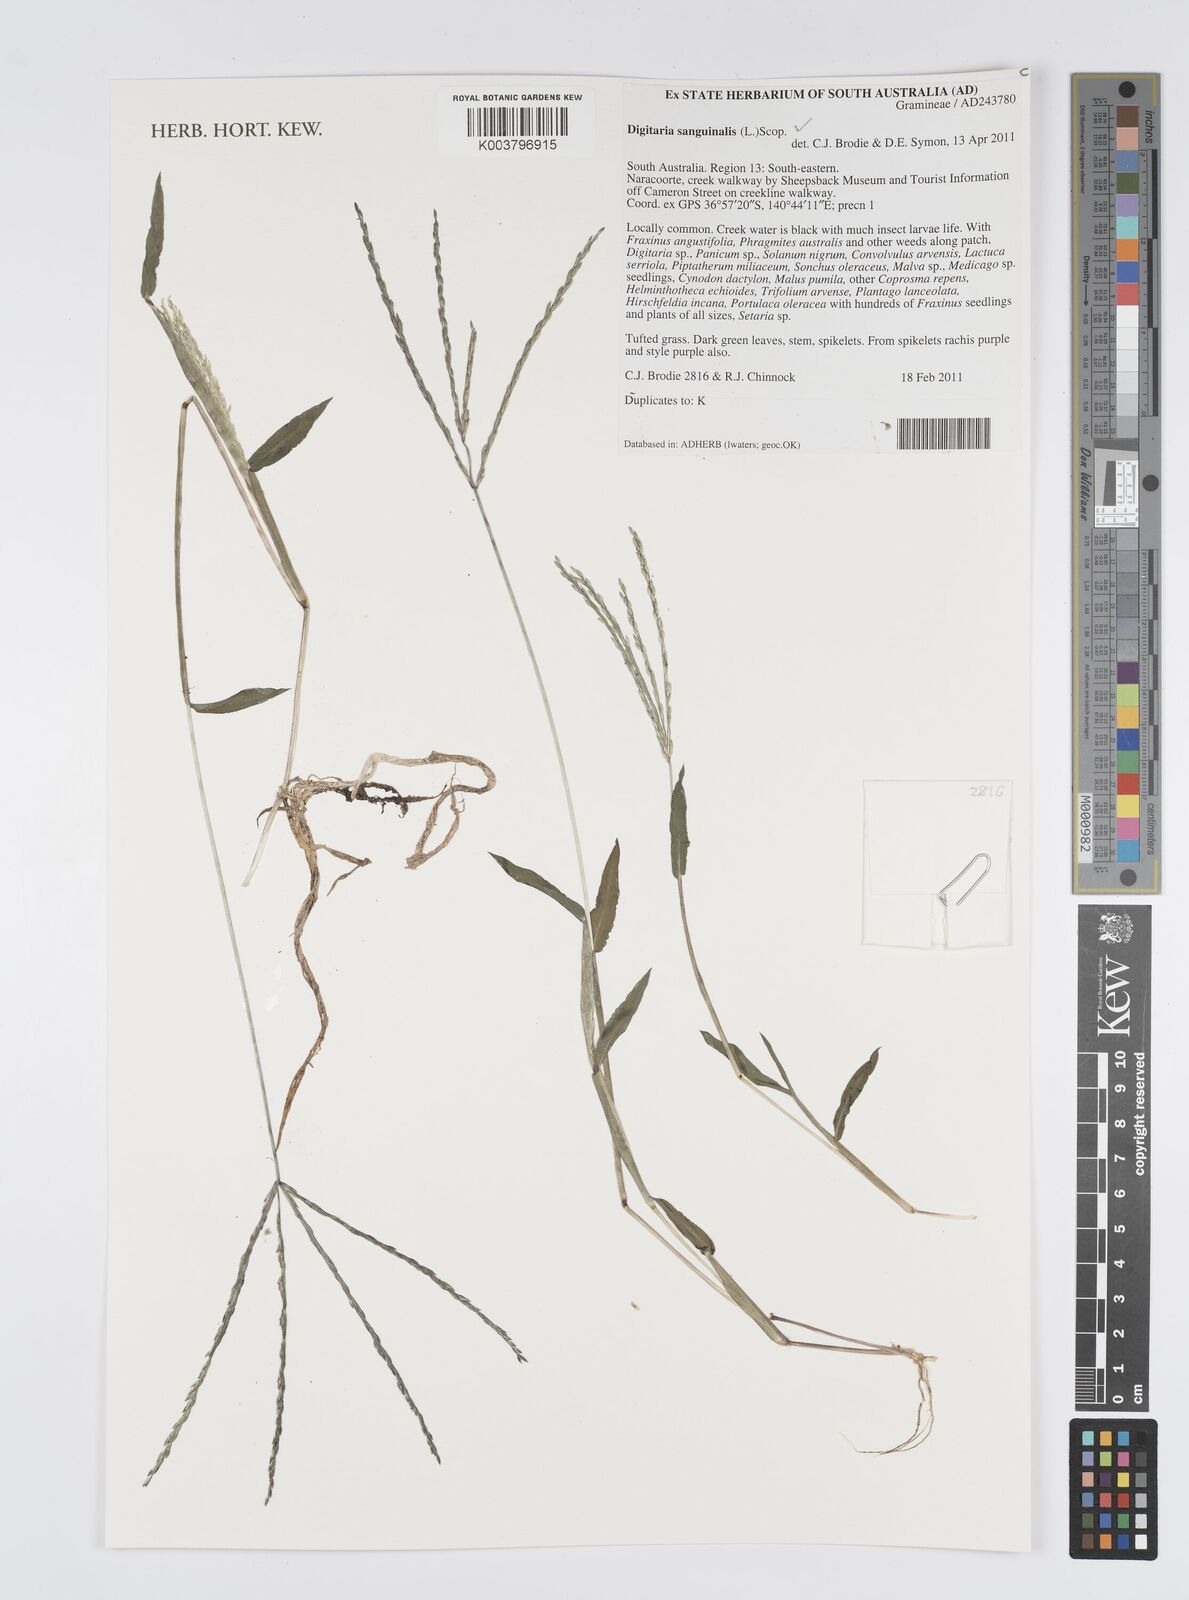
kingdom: Plantae
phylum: Tracheophyta
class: Liliopsida
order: Poales
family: Poaceae
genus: Digitaria
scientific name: Digitaria sanguinalis
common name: Hairy crabgrass
